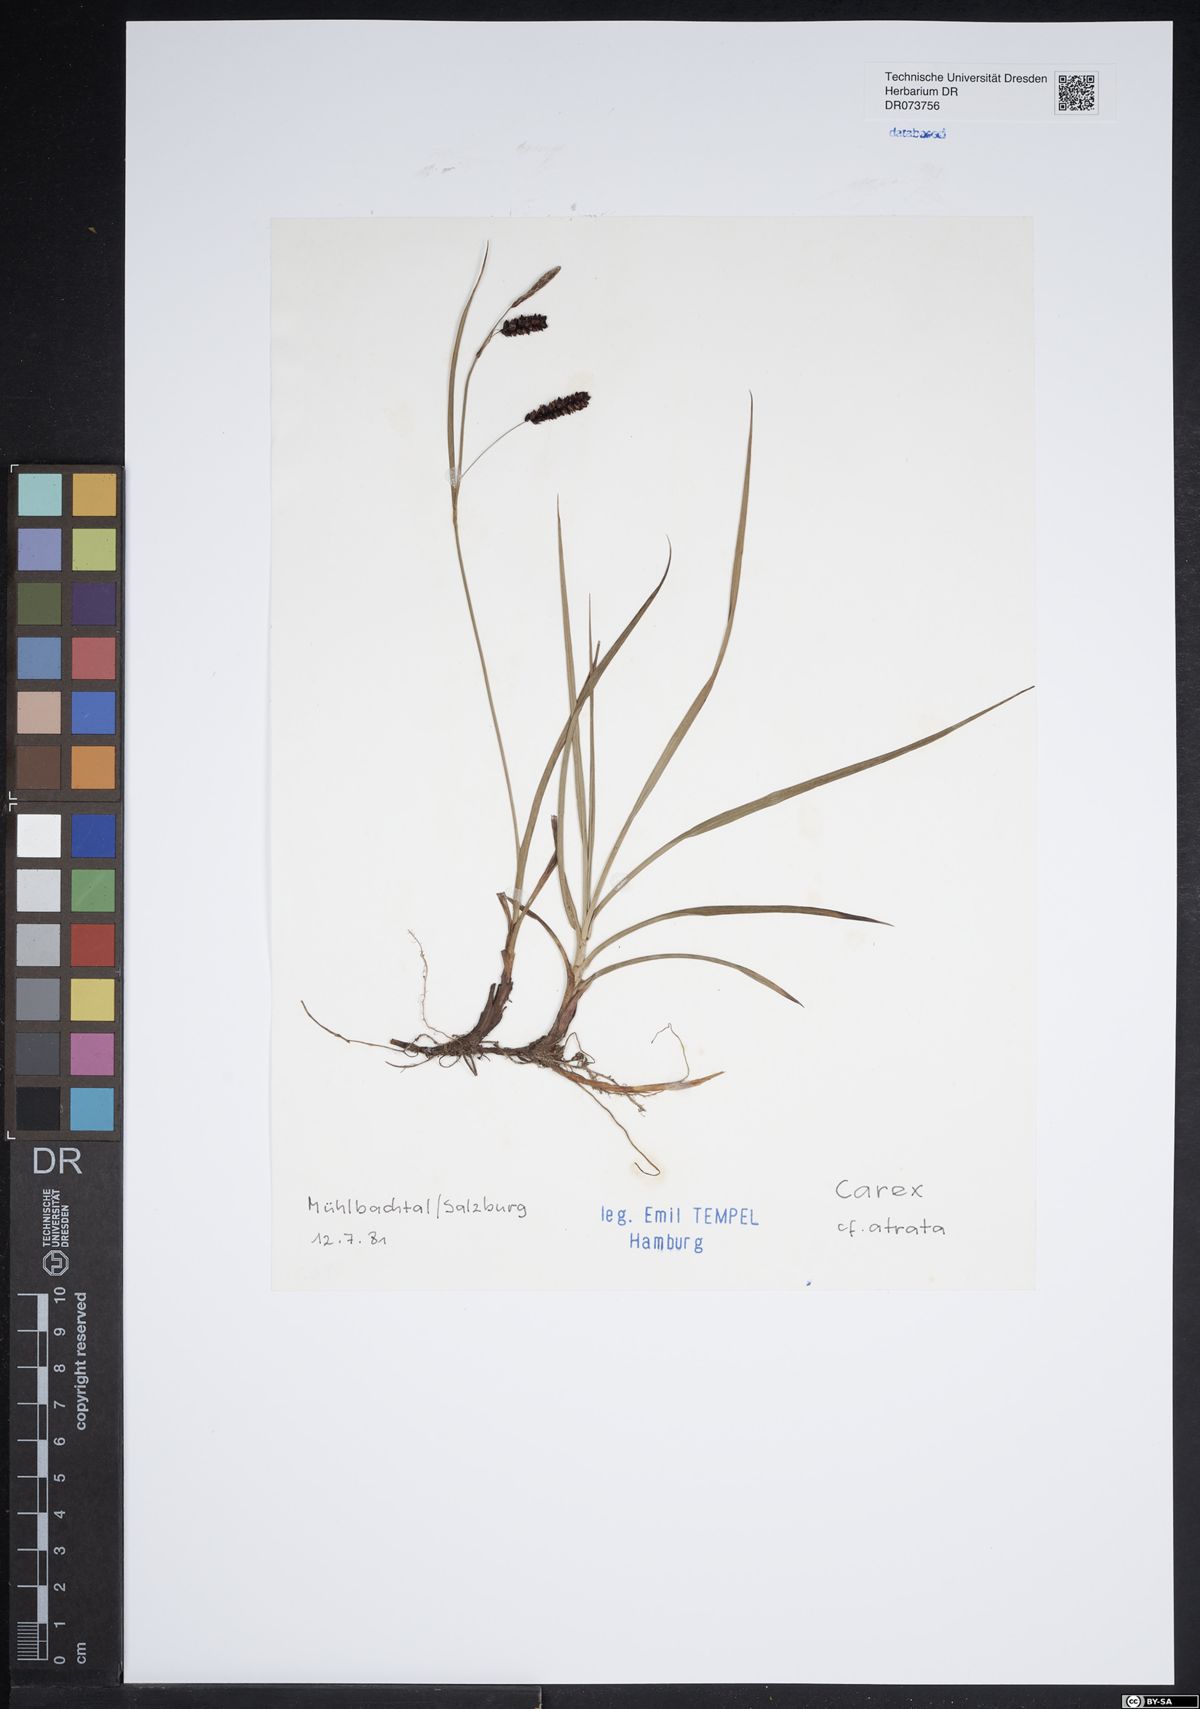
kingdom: Plantae
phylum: Tracheophyta
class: Liliopsida
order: Poales
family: Cyperaceae
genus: Carex
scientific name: Carex atrata
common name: Black alpine sedge
